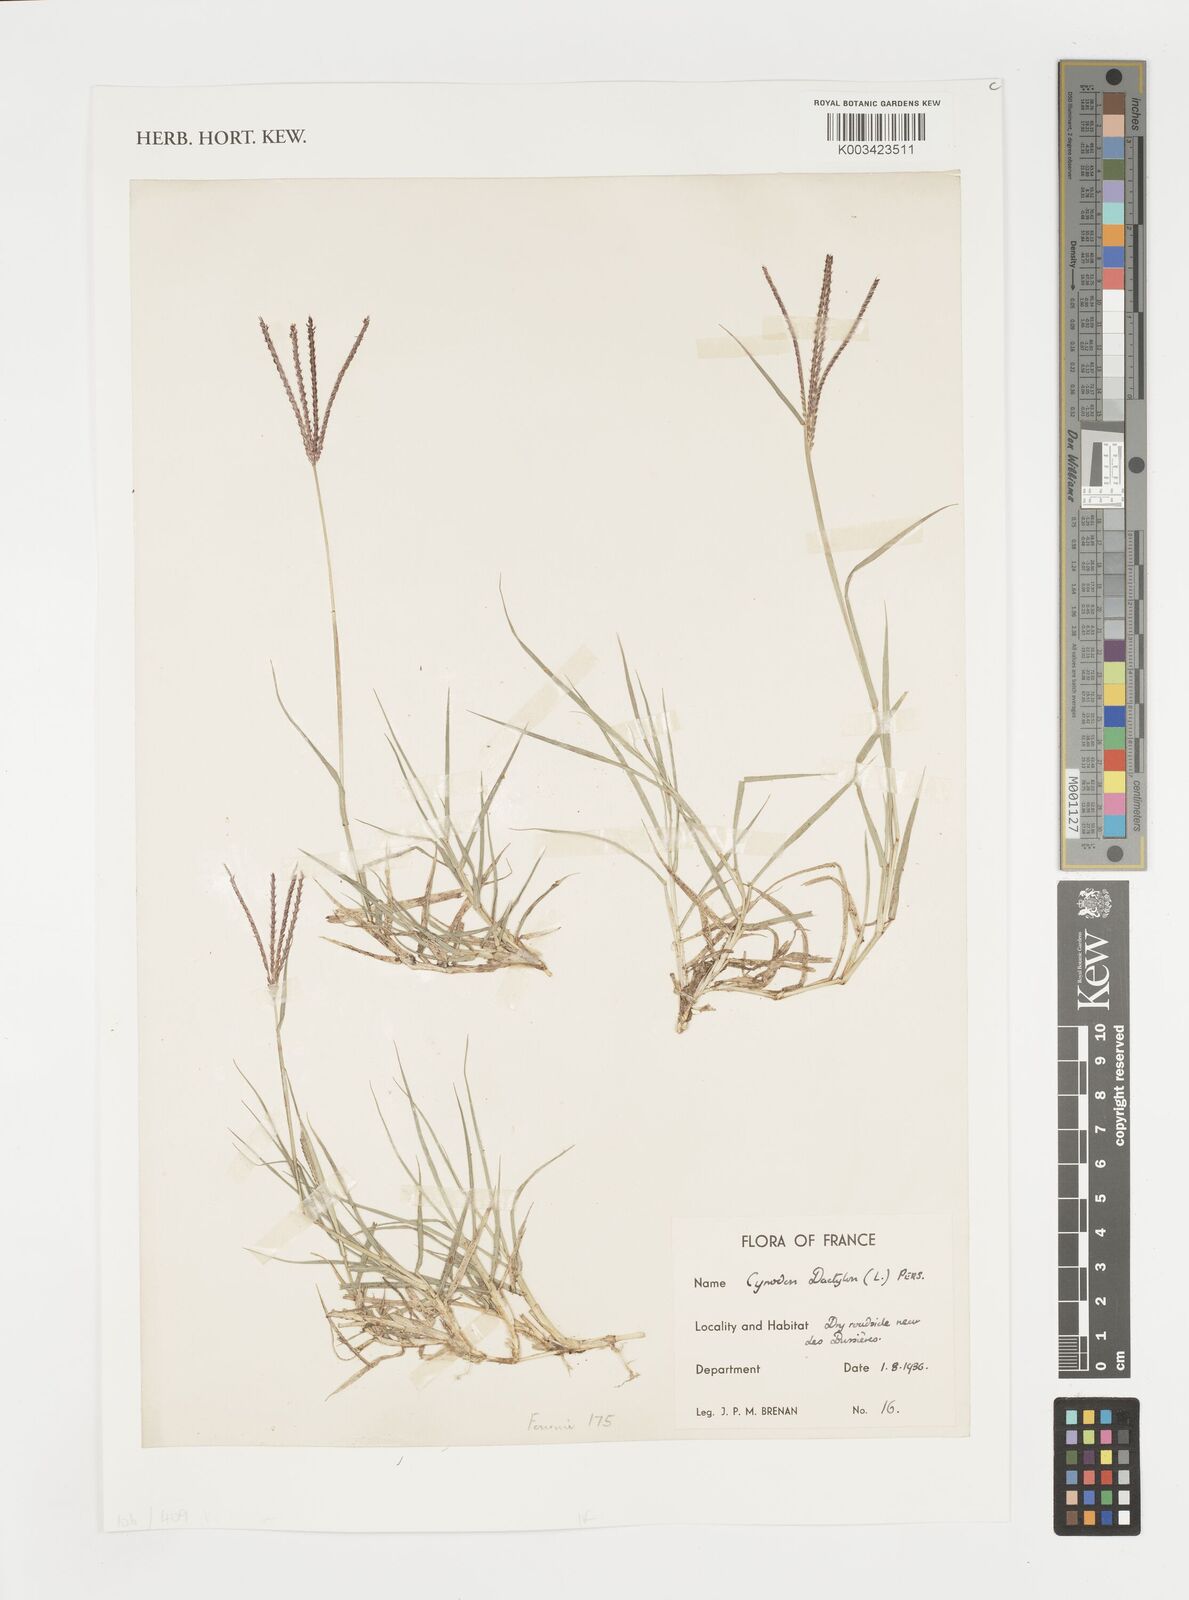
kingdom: Plantae
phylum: Tracheophyta
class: Liliopsida
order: Poales
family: Poaceae
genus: Cynodon
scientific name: Cynodon dactylon
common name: Bermuda grass
